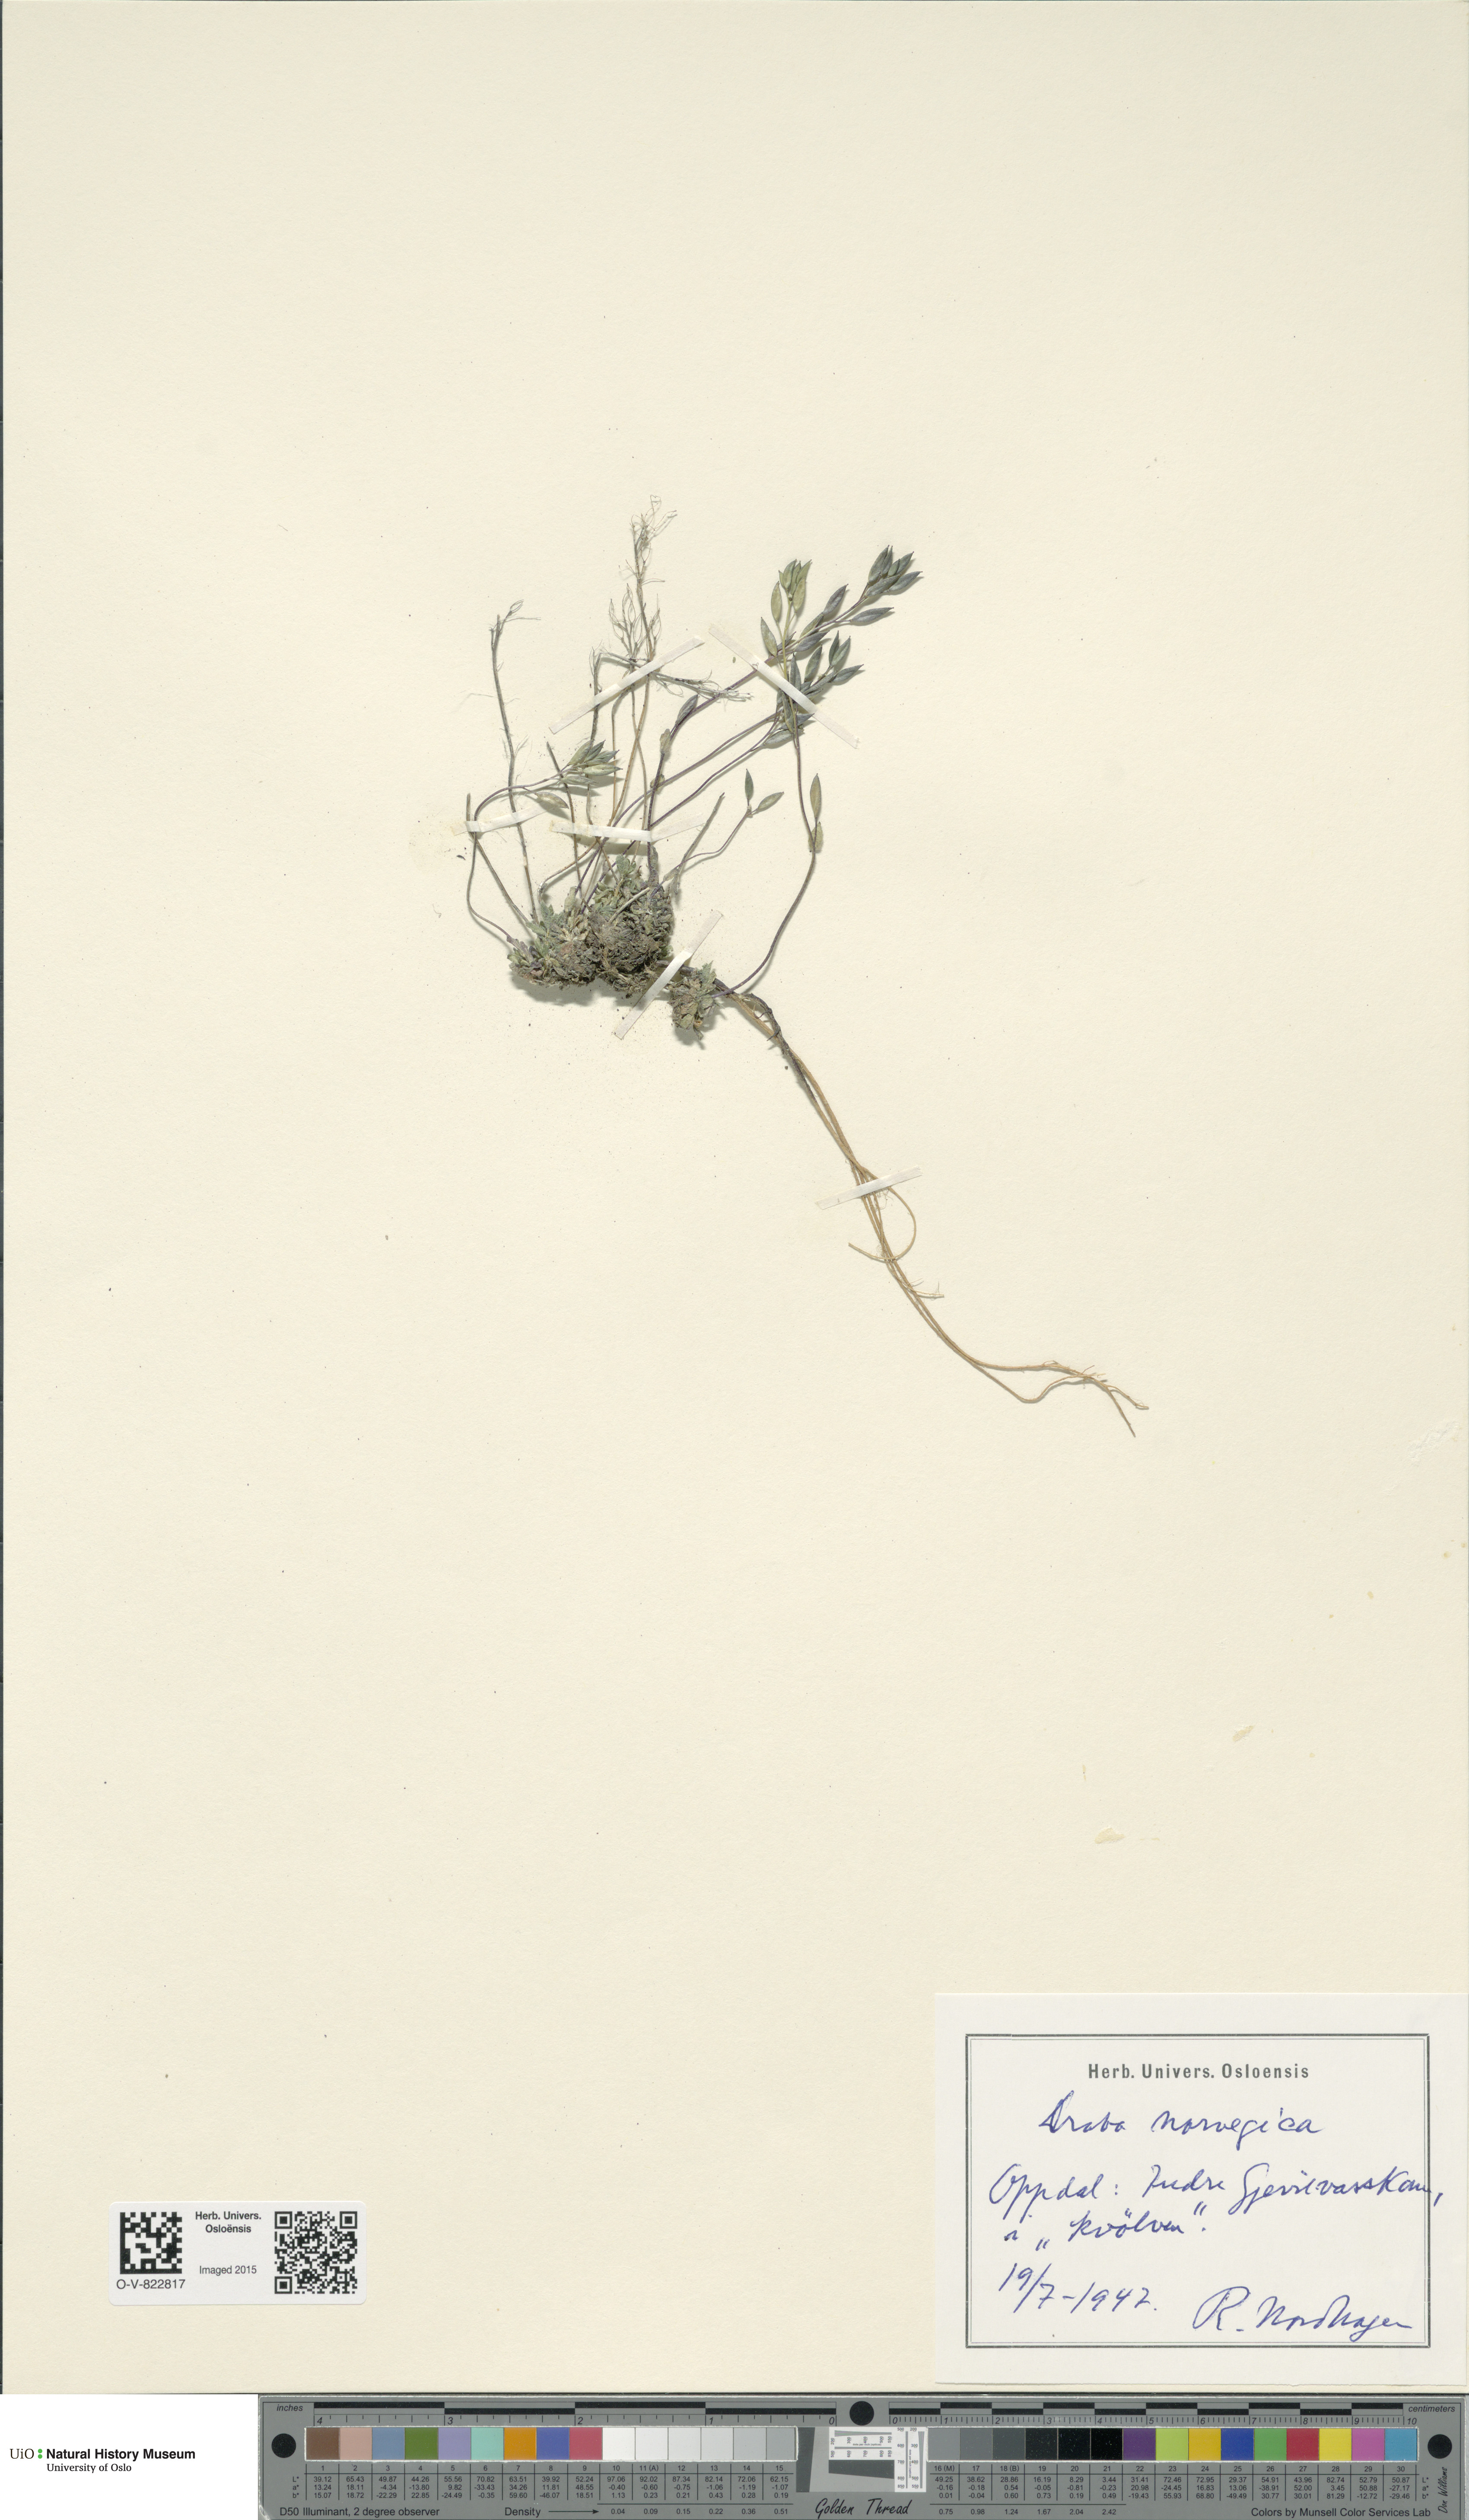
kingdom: Plantae
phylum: Tracheophyta
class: Magnoliopsida
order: Brassicales
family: Brassicaceae
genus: Draba
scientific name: Draba norvegica
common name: Rock whitlowgrass
